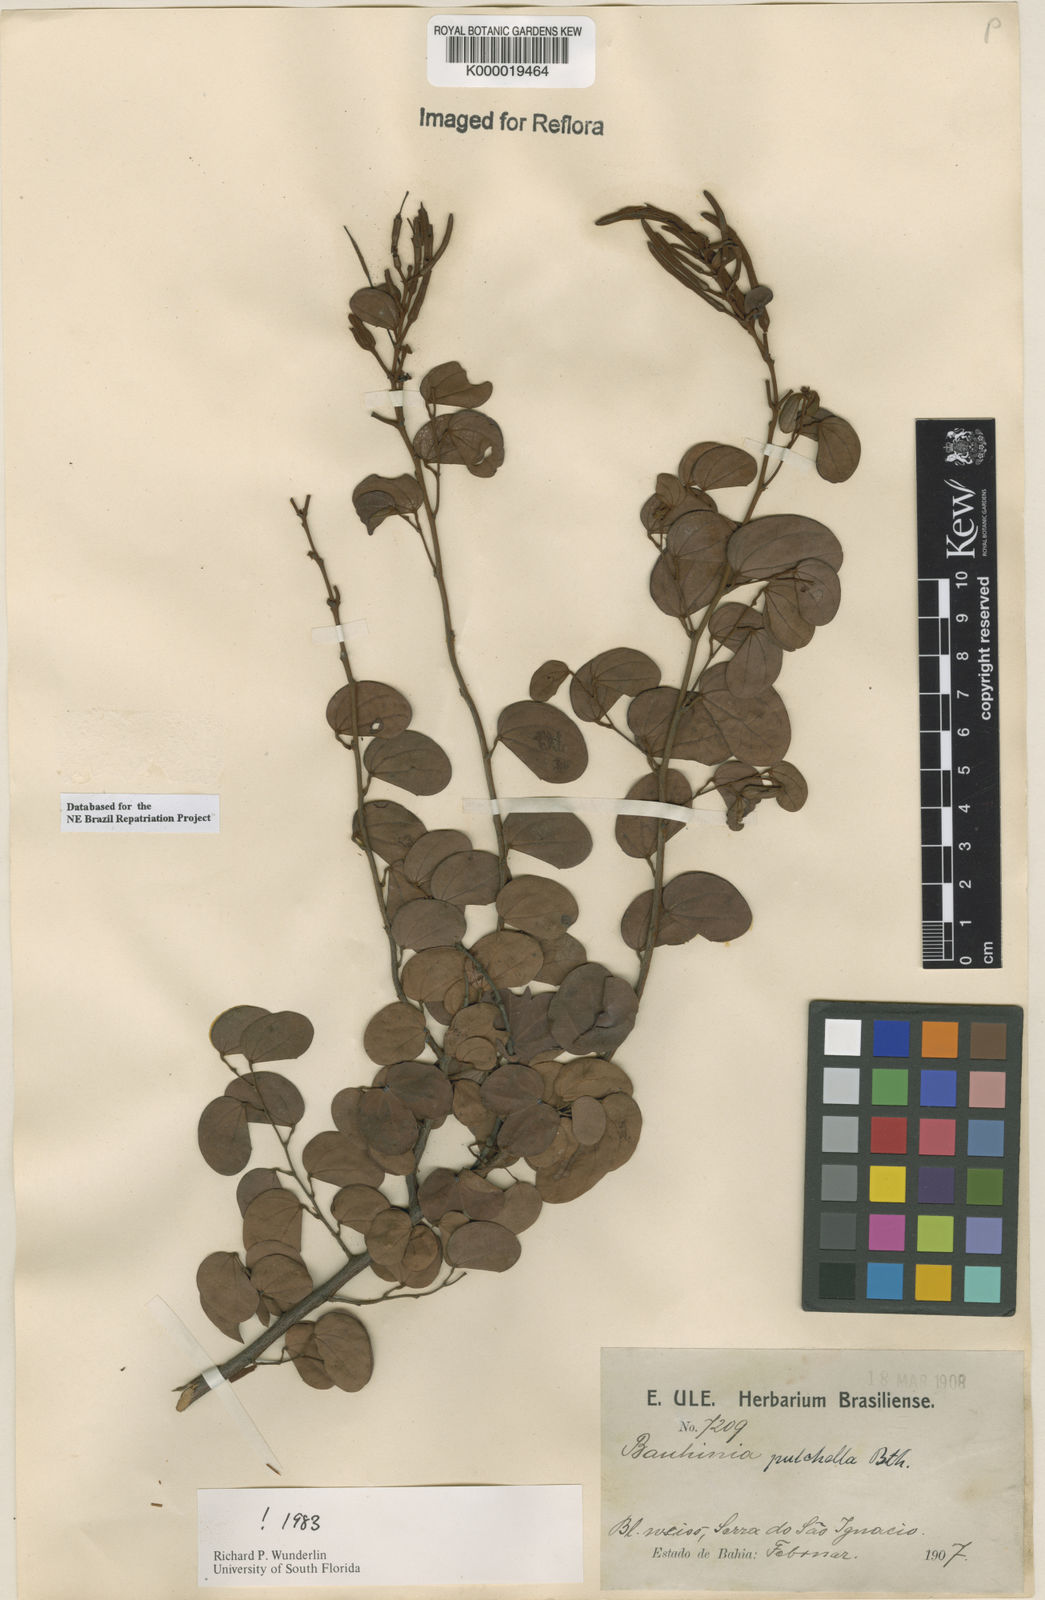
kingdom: Plantae
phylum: Tracheophyta
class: Magnoliopsida
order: Fabales
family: Fabaceae
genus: Bauhinia
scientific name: Bauhinia pulchella
